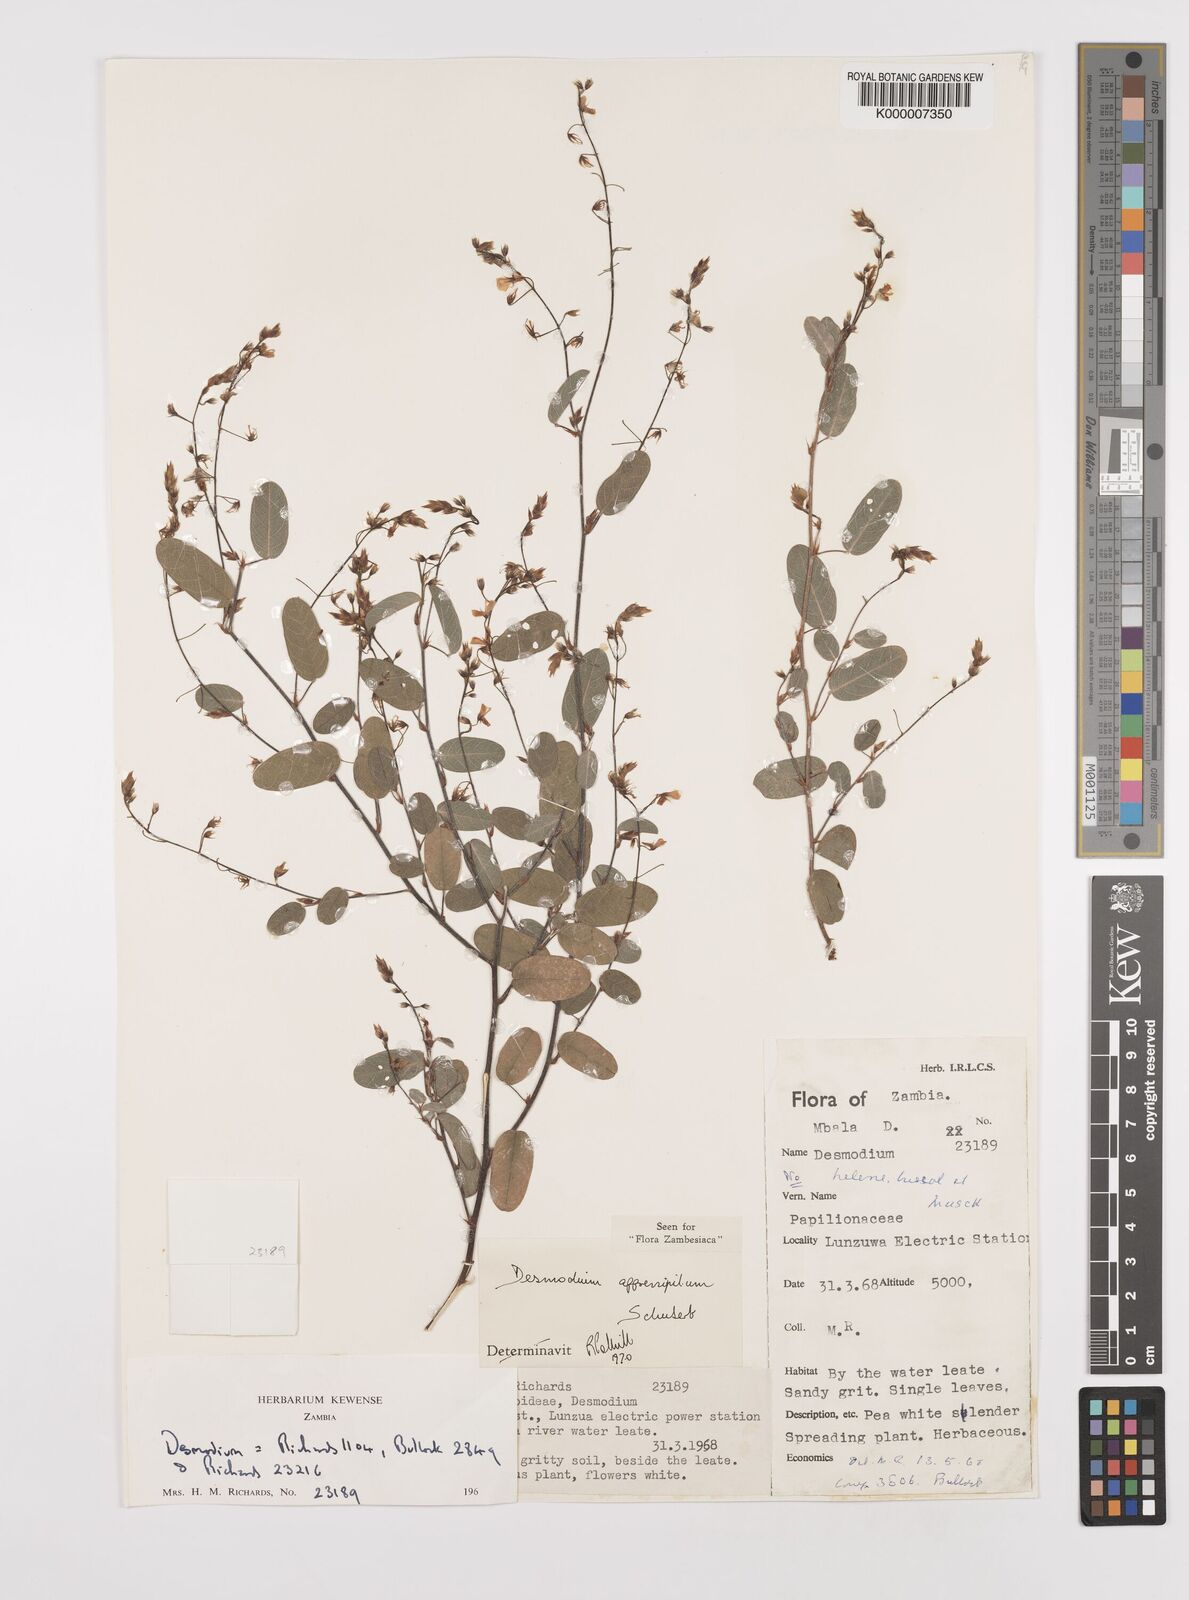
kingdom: Plantae
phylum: Tracheophyta
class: Magnoliopsida
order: Fabales
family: Fabaceae
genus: Grona
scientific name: Grona appressipila
